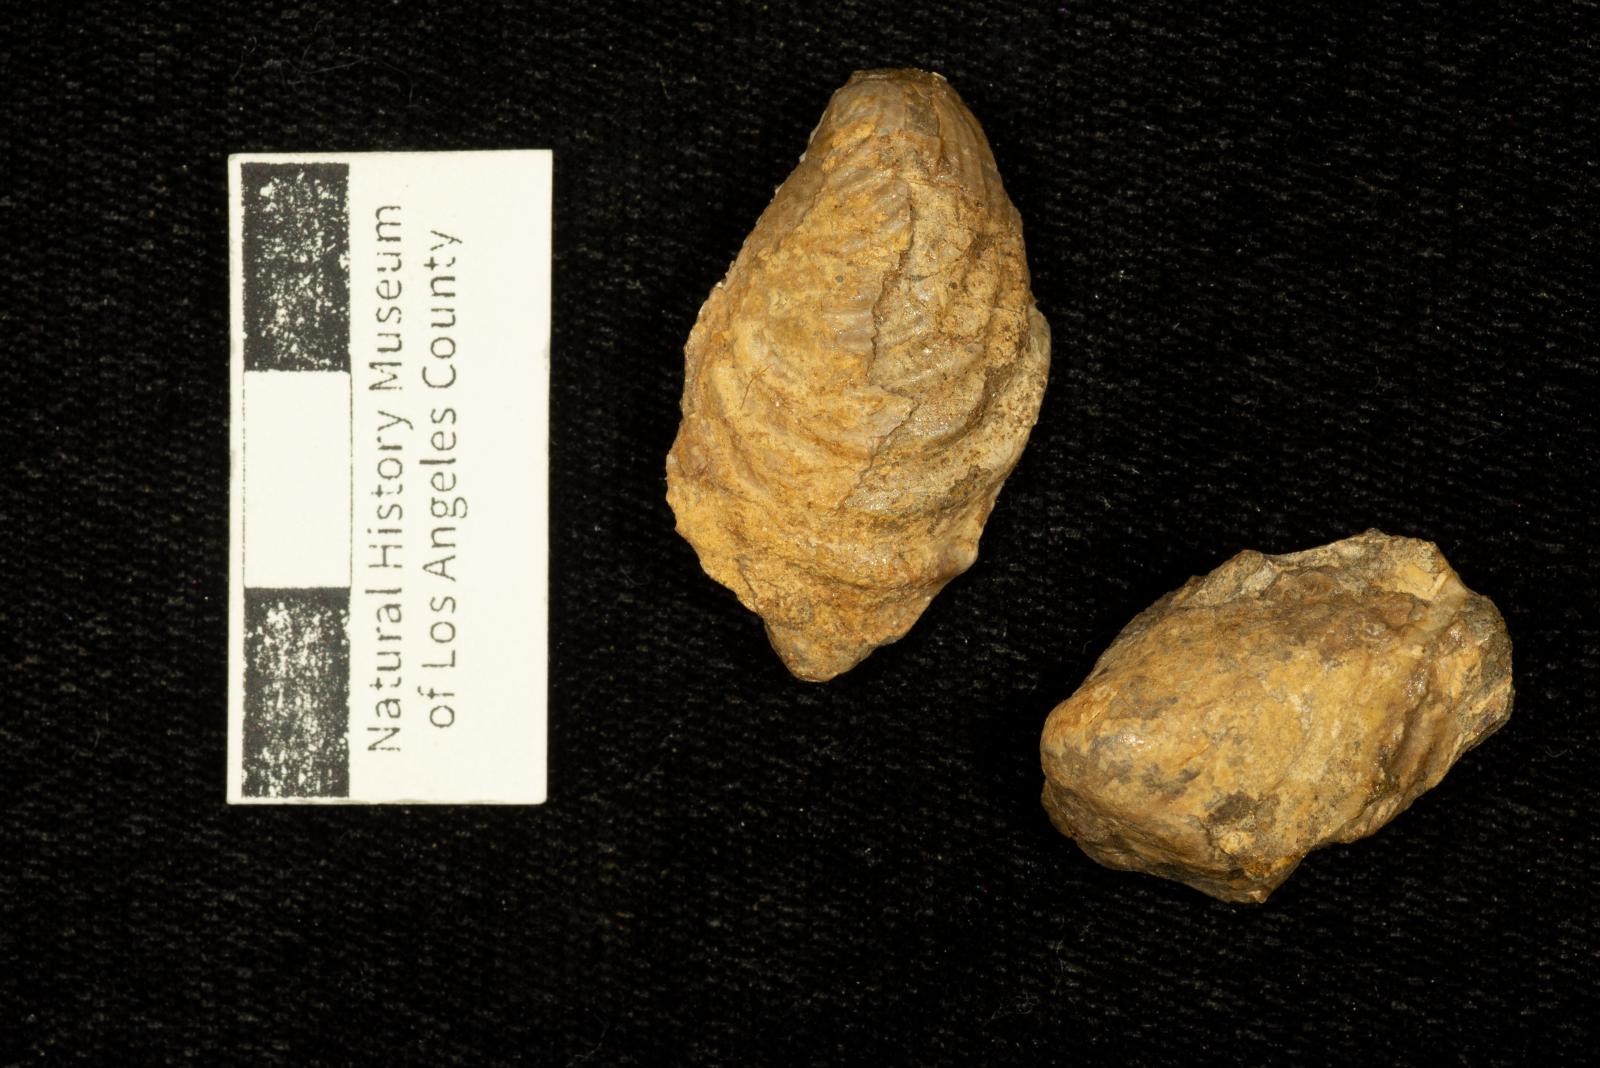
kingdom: Animalia
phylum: Mollusca
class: Bivalvia
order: Myalinida
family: Inoceramidae
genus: Cataceramus
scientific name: Cataceramus
